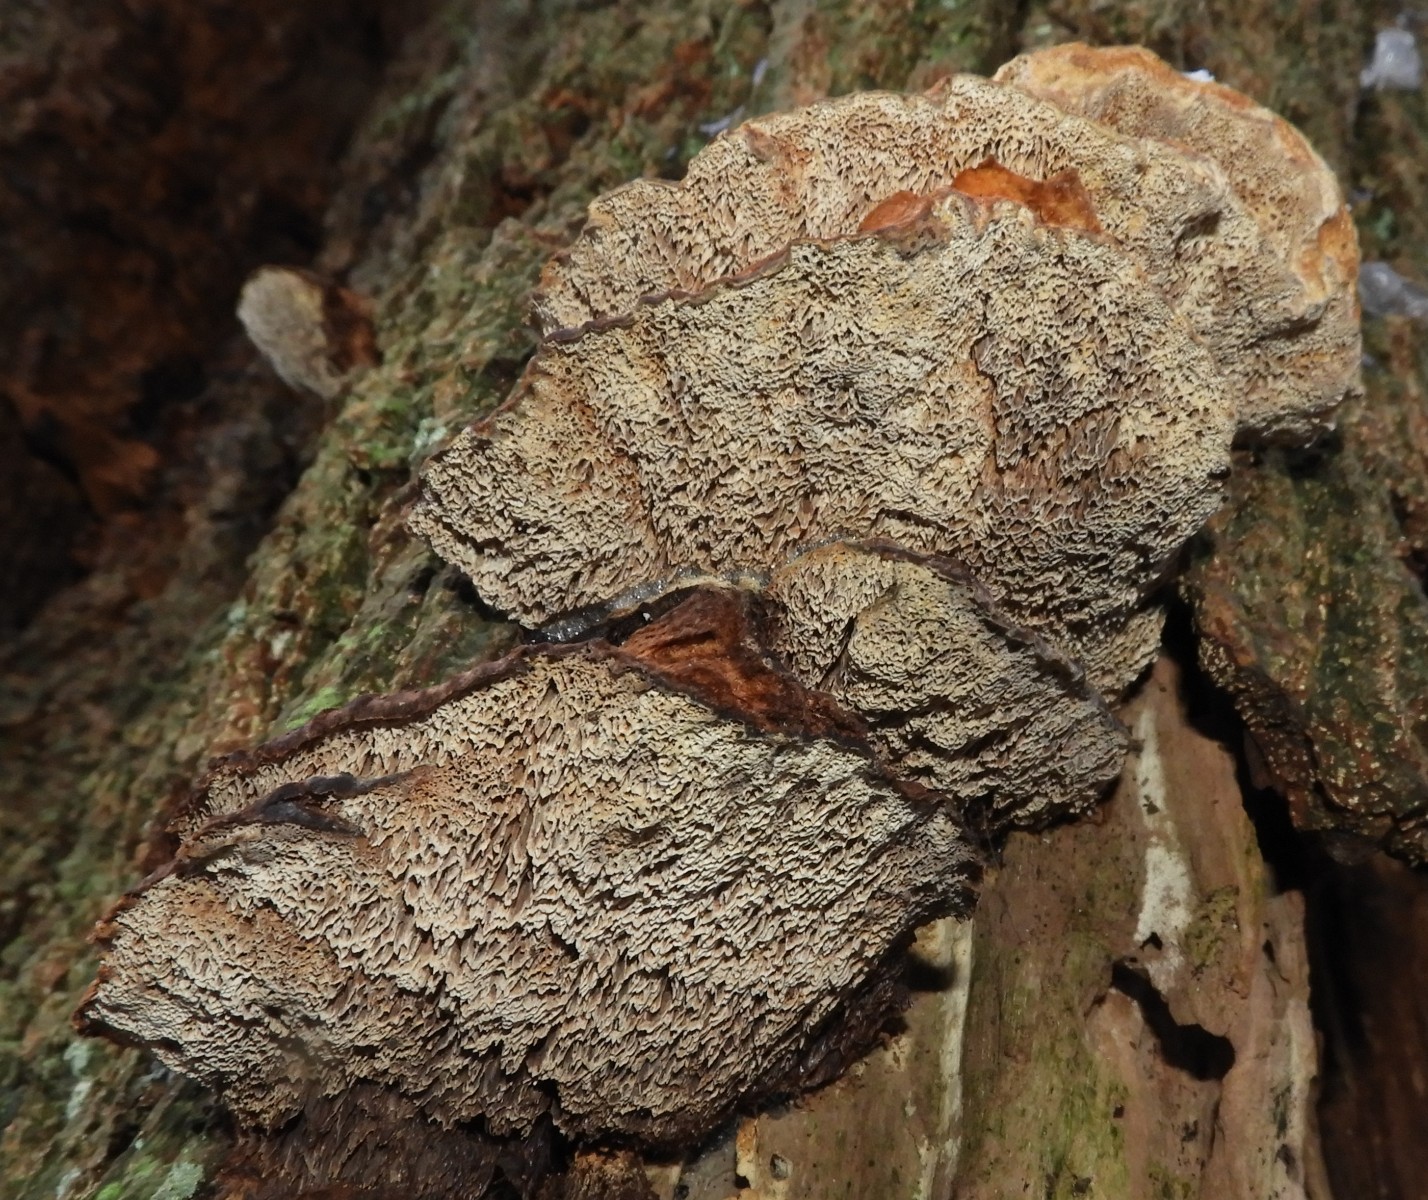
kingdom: Fungi
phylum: Basidiomycota
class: Agaricomycetes
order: Hymenochaetales
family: Hymenochaetaceae
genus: Xanthoporia
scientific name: Xanthoporia radiata
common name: elle-spejlporesvamp
